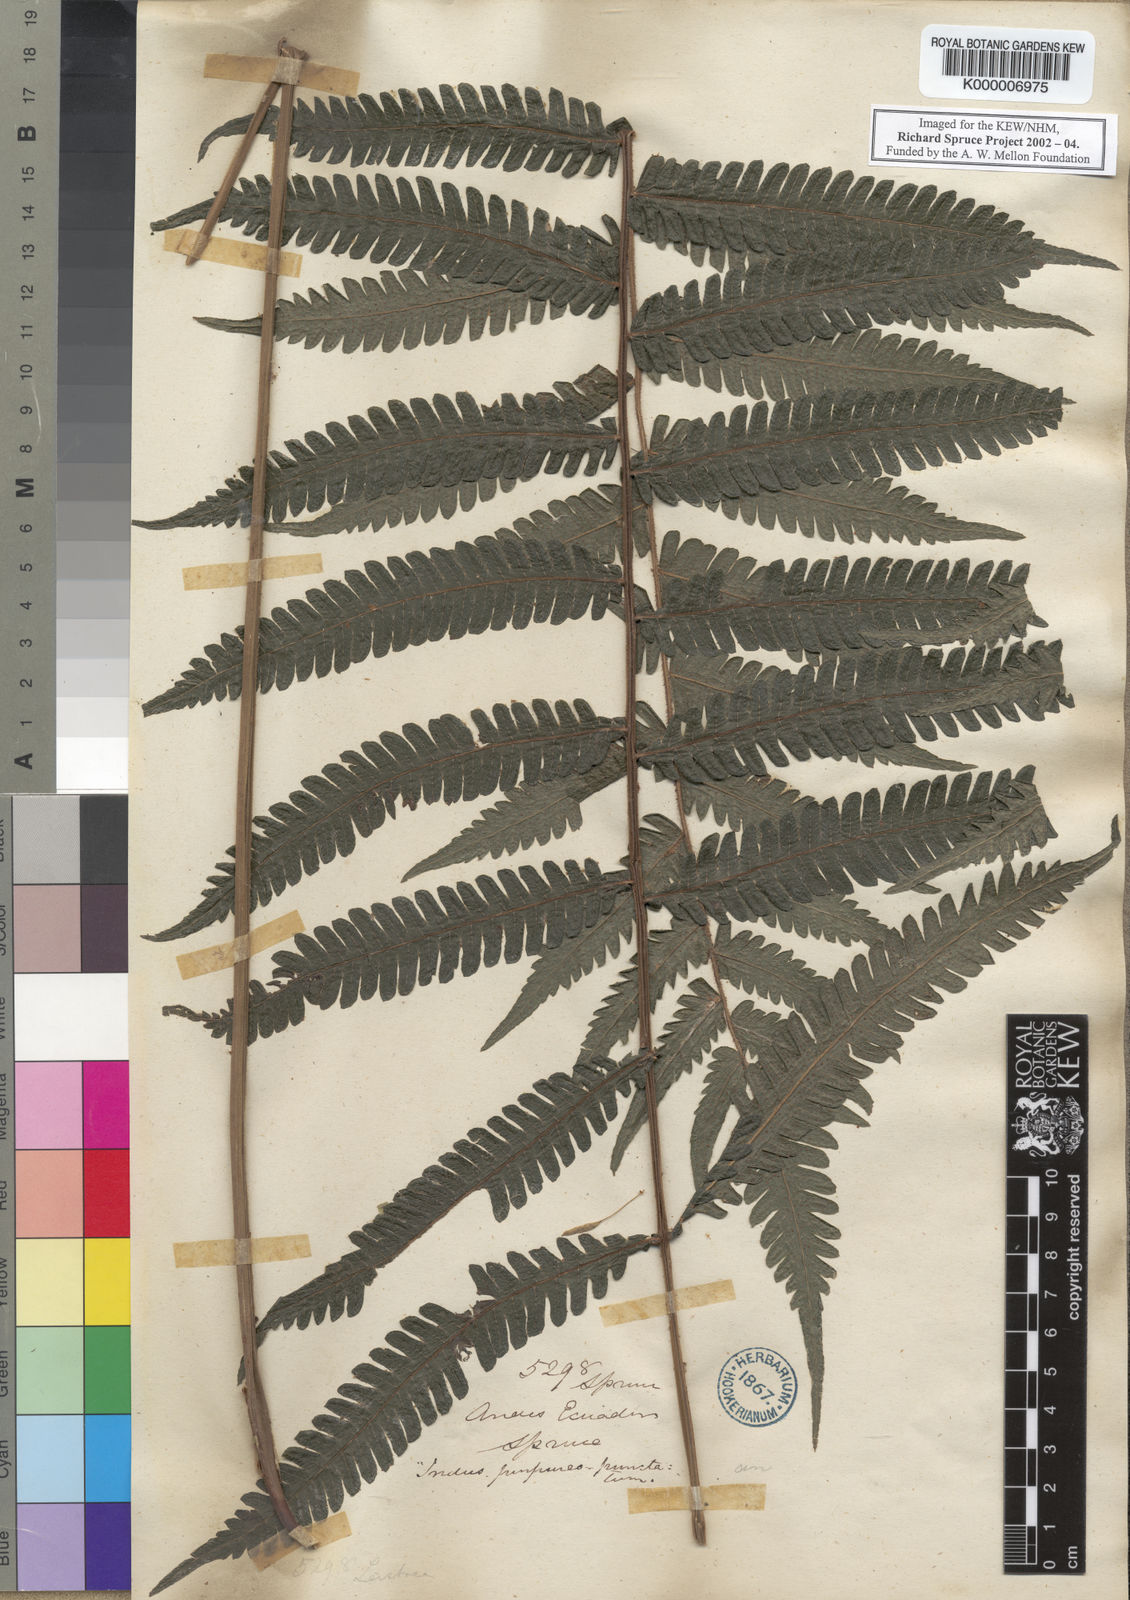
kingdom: Plantae
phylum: Tracheophyta
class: Polypodiopsida
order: Polypodiales
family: Thelypteridaceae
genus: Goniopteris
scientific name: Goniopteris tetragona
